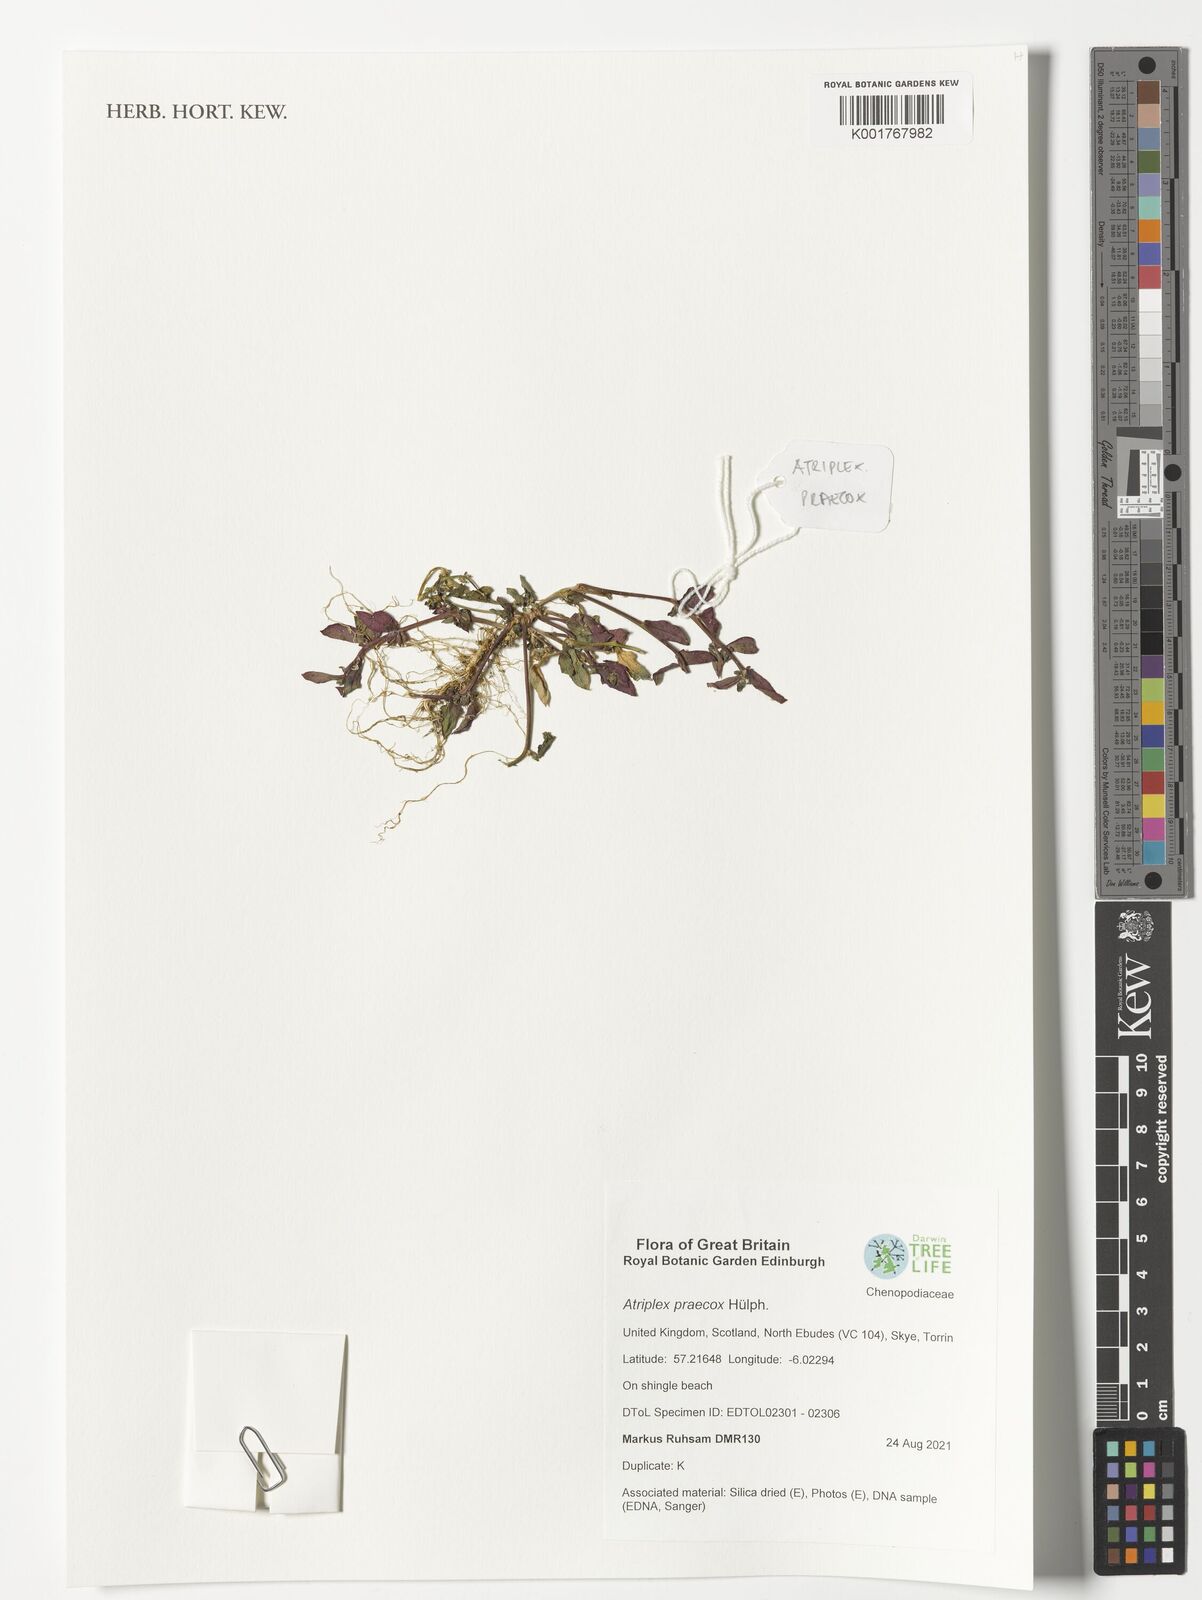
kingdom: Plantae
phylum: Tracheophyta
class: Magnoliopsida
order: Caryophyllales
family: Amaranthaceae
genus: Atriplex
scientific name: Atriplex praecox
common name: Early orache
